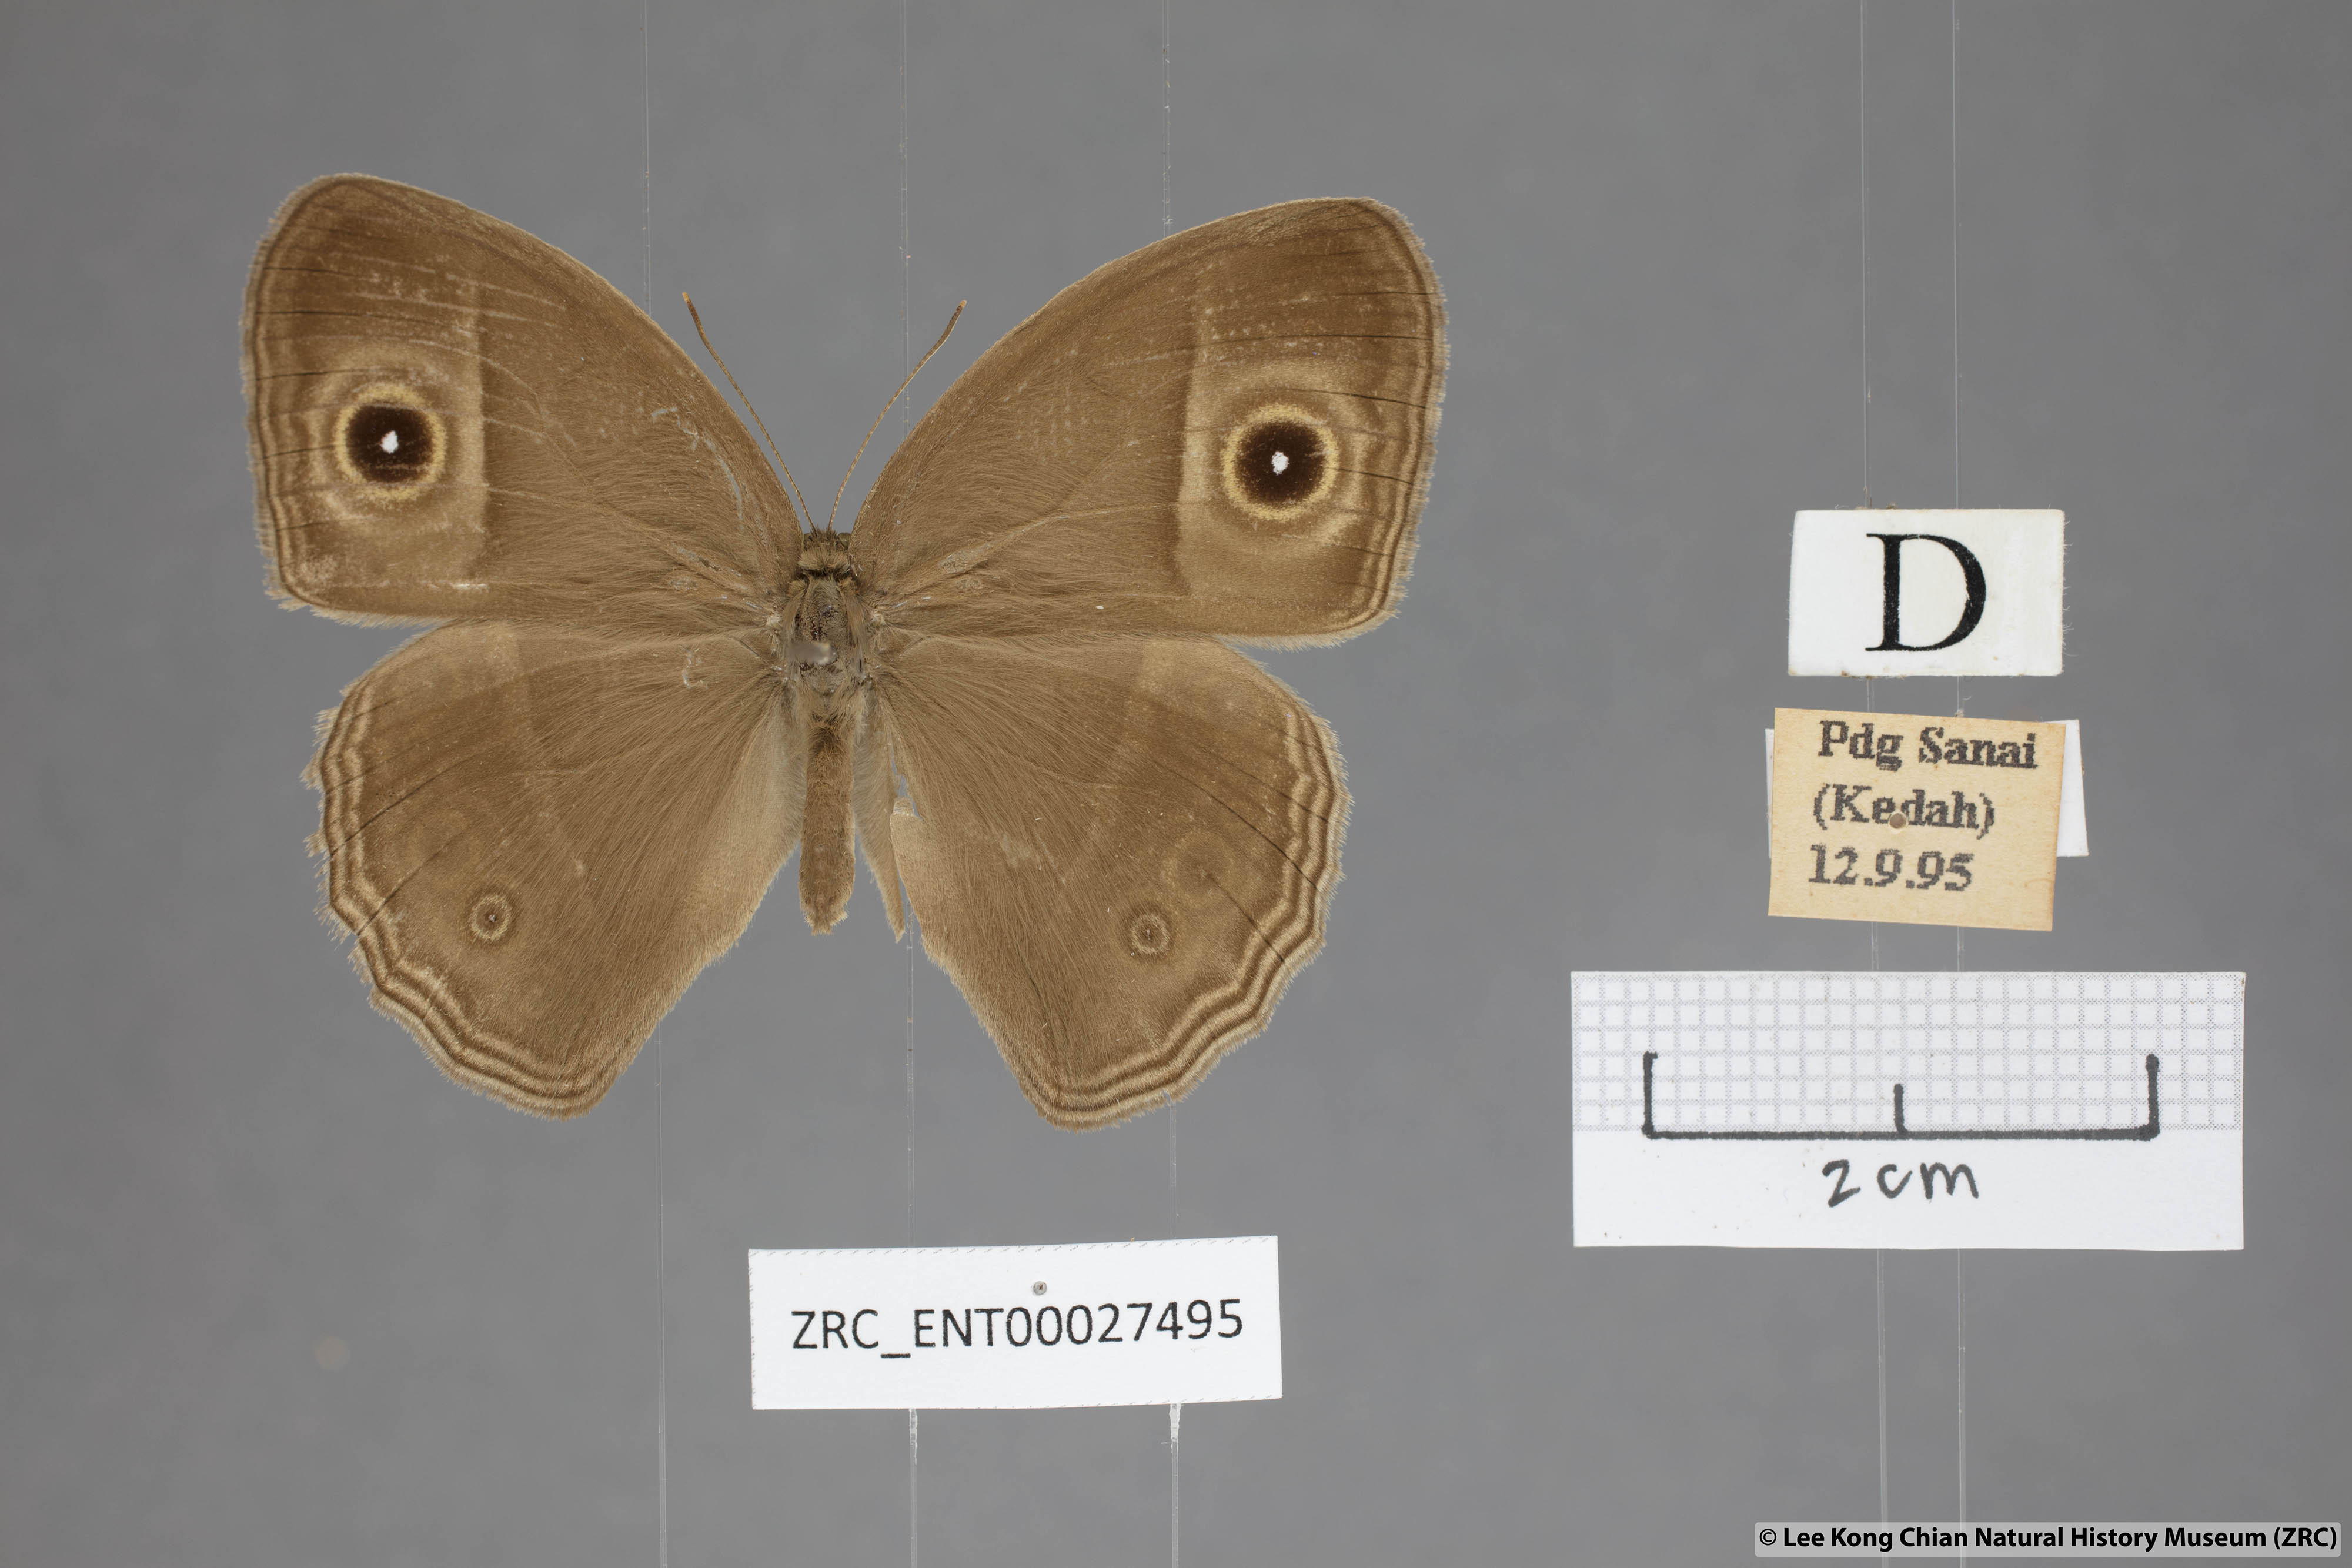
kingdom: Animalia
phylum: Arthropoda
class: Insecta
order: Lepidoptera
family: Nymphalidae
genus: Mycalesis
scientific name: Mycalesis perseoides
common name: Burmese bushbrown
